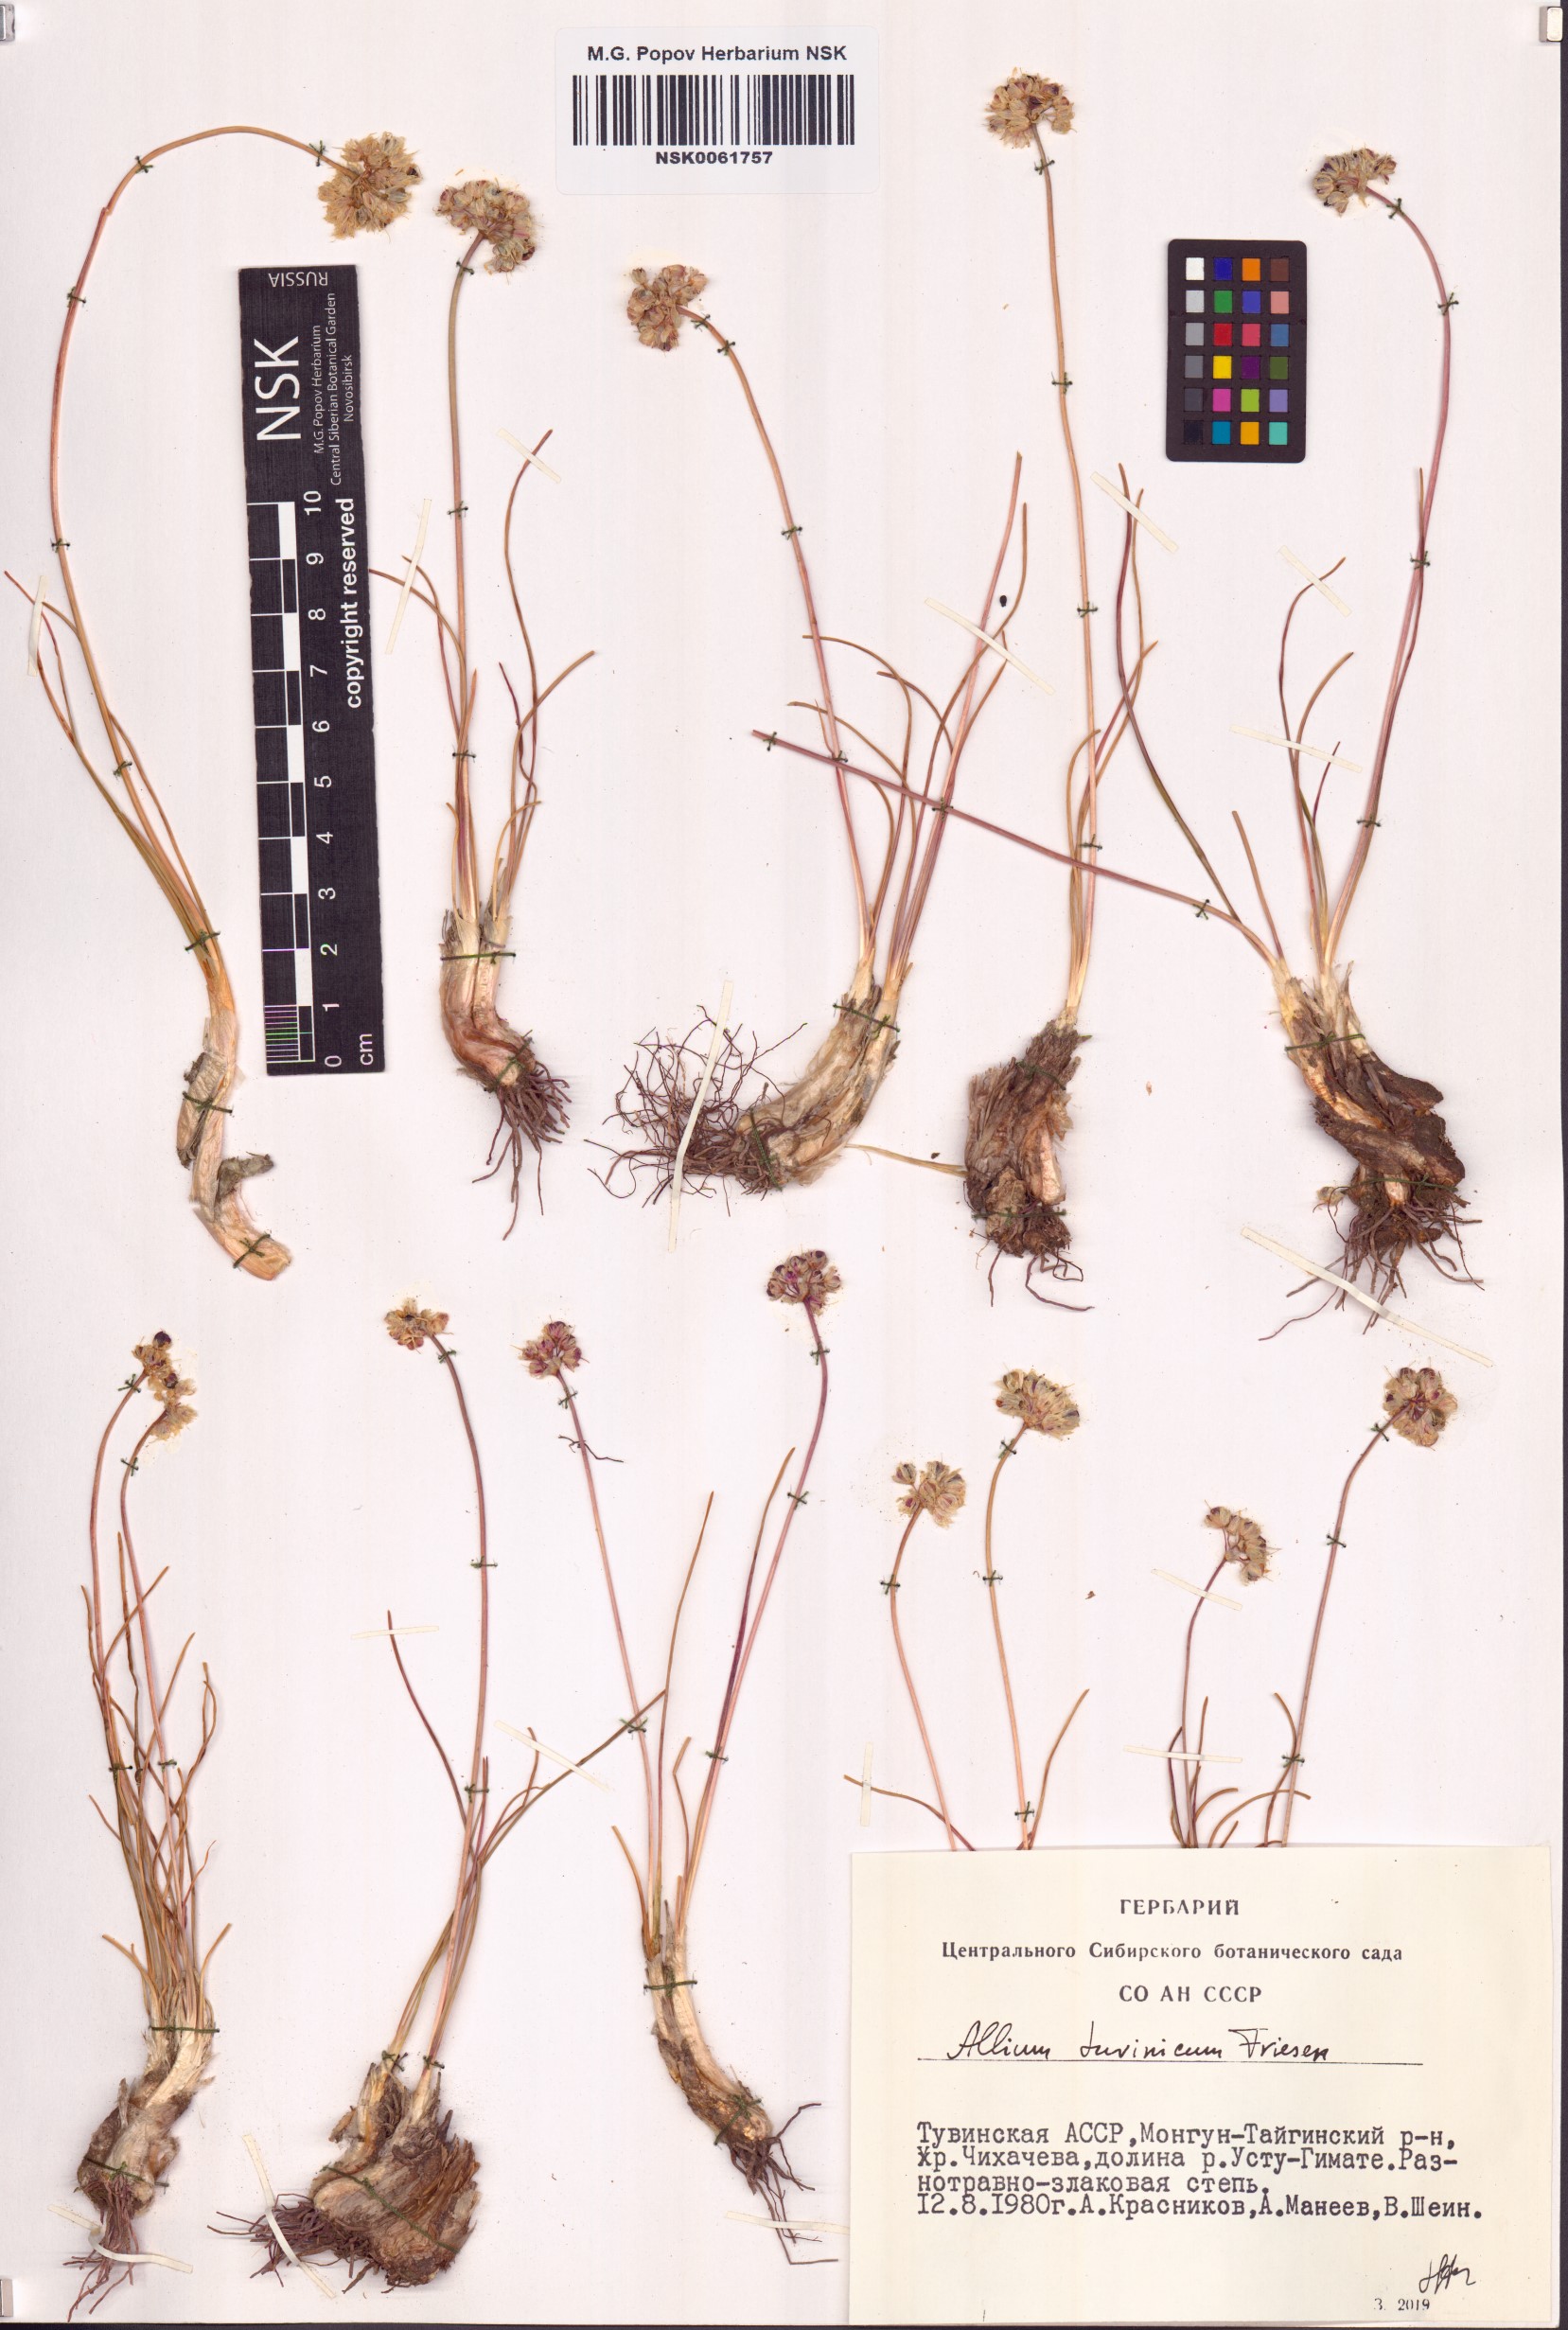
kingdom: Plantae
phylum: Tracheophyta
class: Liliopsida
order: Asparagales
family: Amaryllidaceae
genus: Allium
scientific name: Allium tuvinicum
